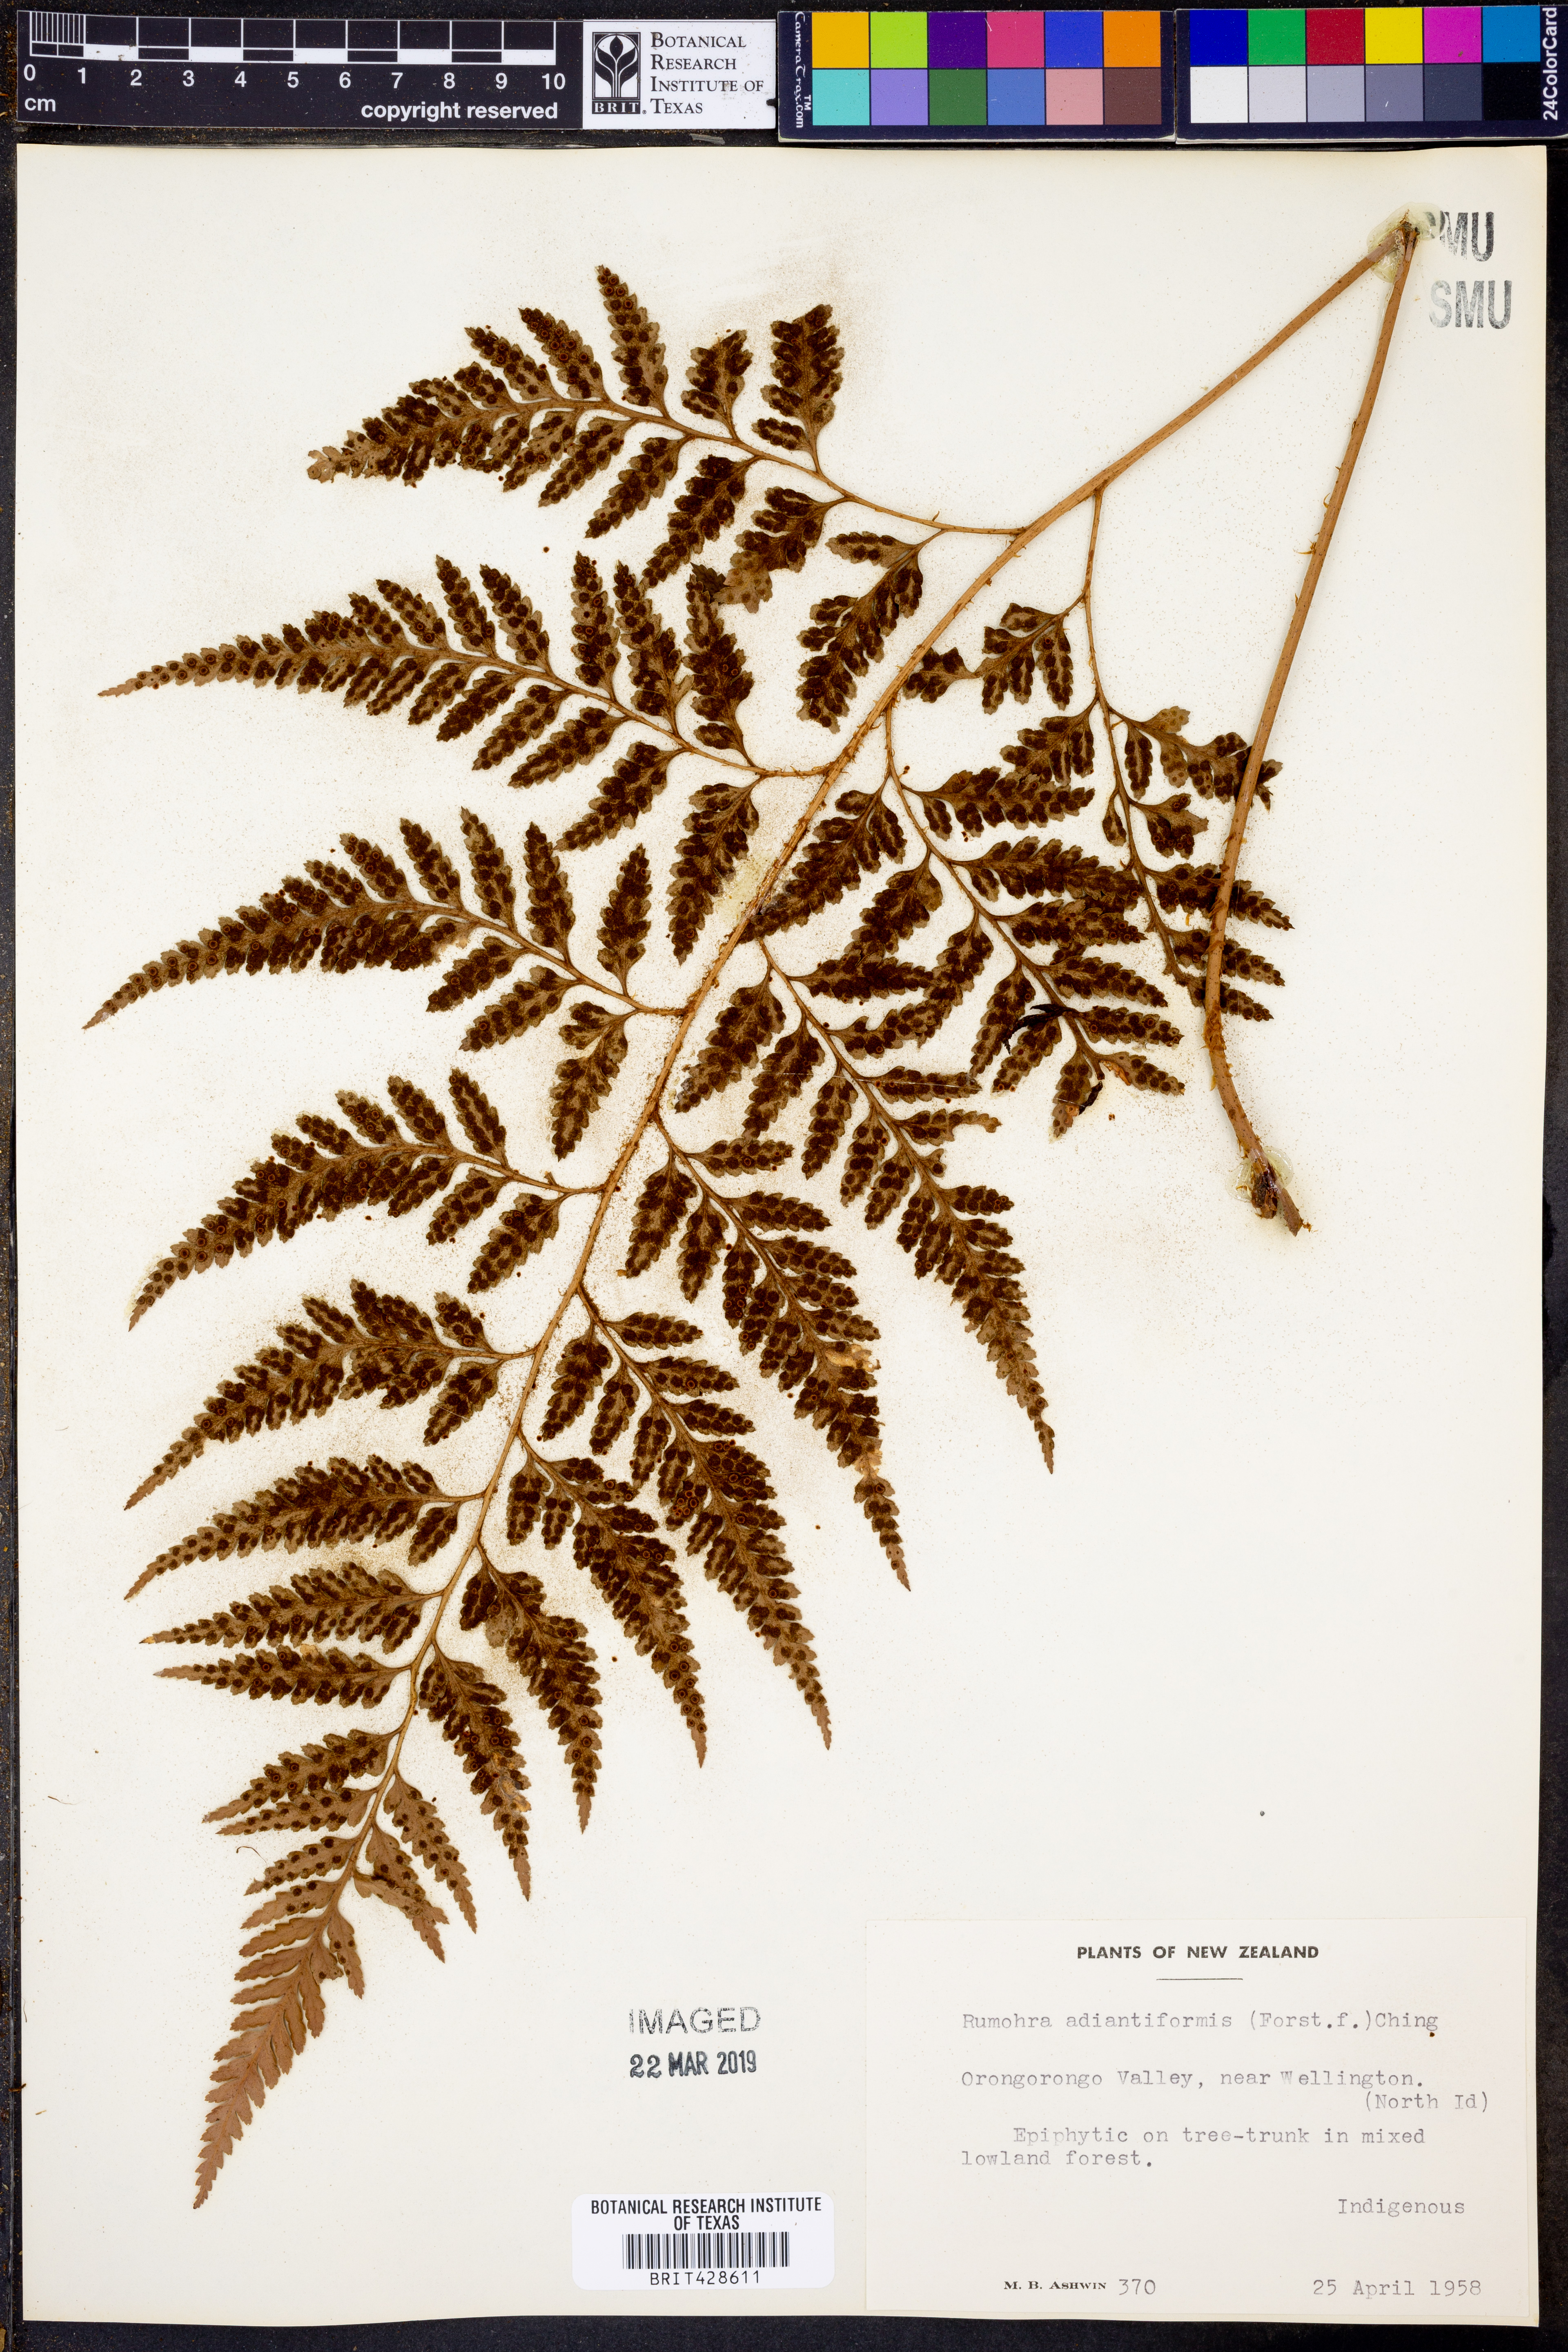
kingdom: Plantae
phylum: Tracheophyta
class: Polypodiopsida
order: Polypodiales
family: Dryopteridaceae
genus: Rumohra
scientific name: Rumohra adiantiformis
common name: Leather fern
